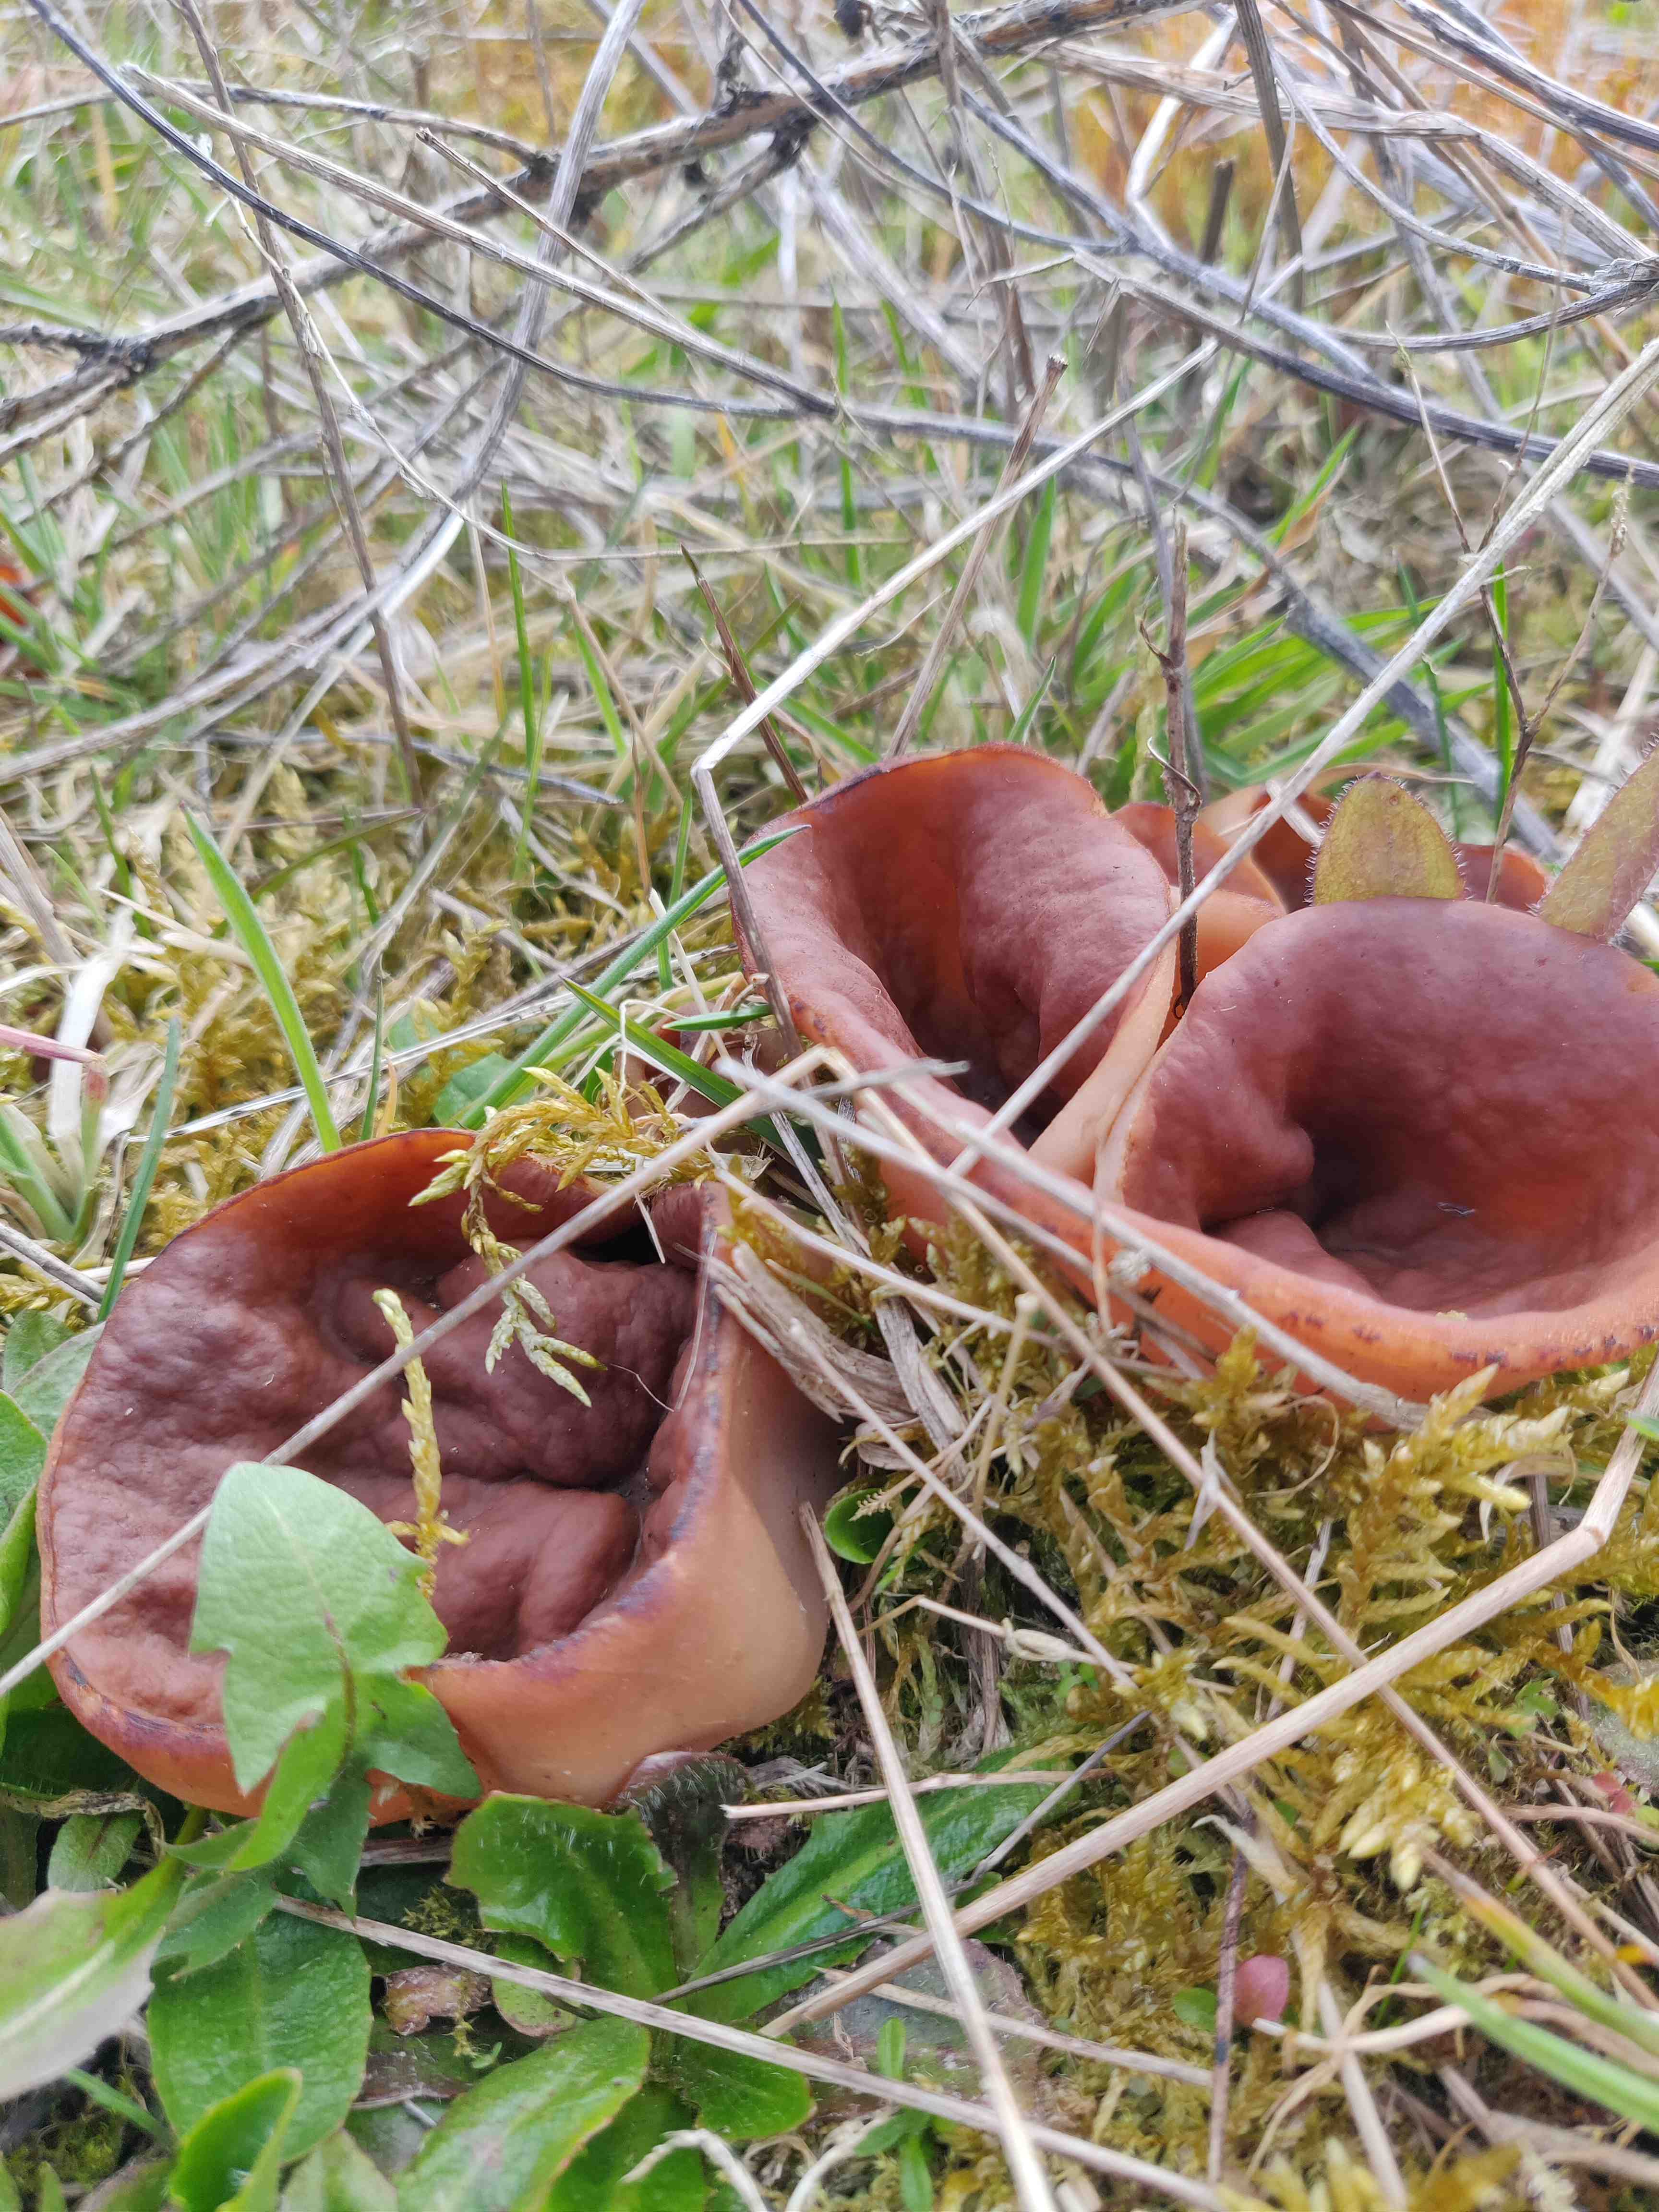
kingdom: Fungi
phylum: Ascomycota
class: Pezizomycetes
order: Pezizales
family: Discinaceae
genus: Discina
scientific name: Discina ancilis
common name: udbredt stenmorkel
